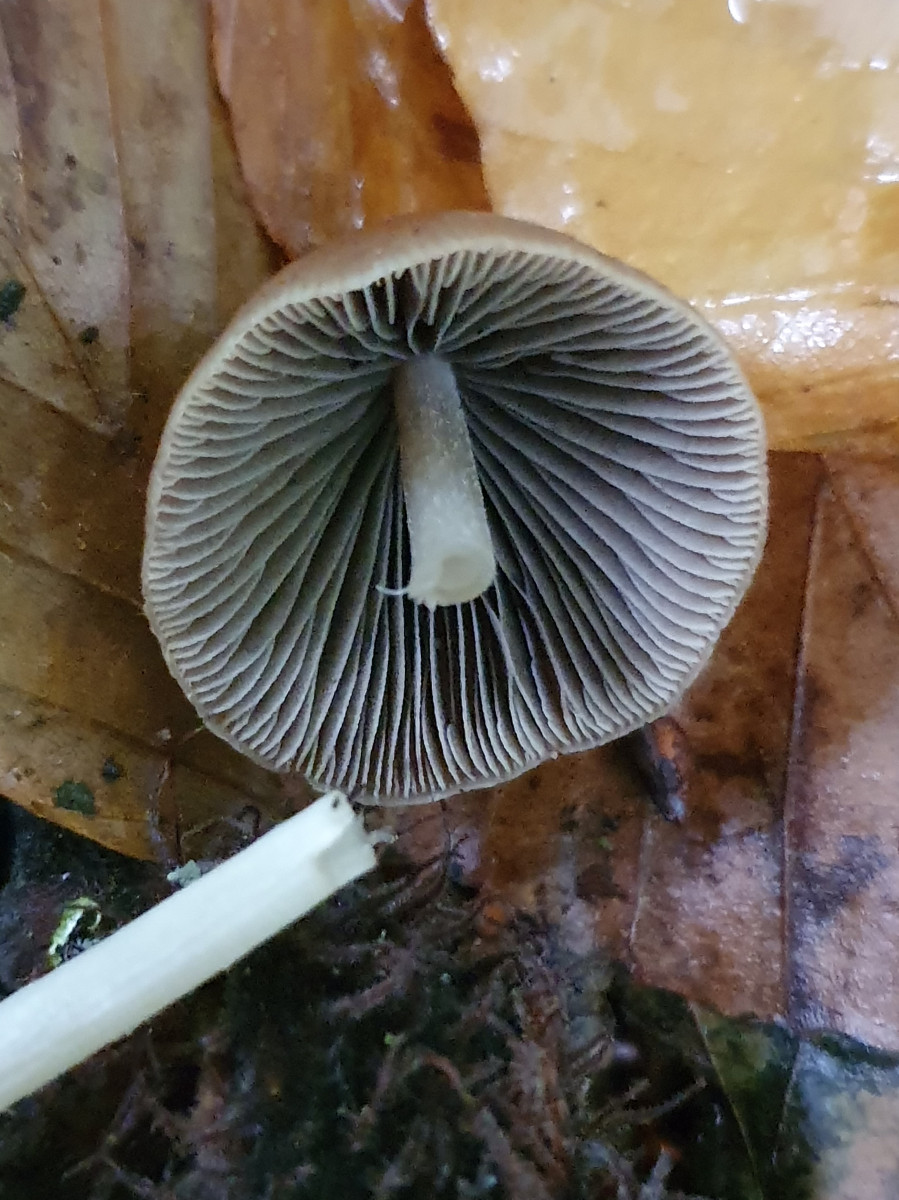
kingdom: Fungi
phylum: Basidiomycota
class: Agaricomycetes
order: Agaricales
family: Psathyrellaceae
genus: Parasola
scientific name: Parasola conopilea
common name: kegle-hjulhat
